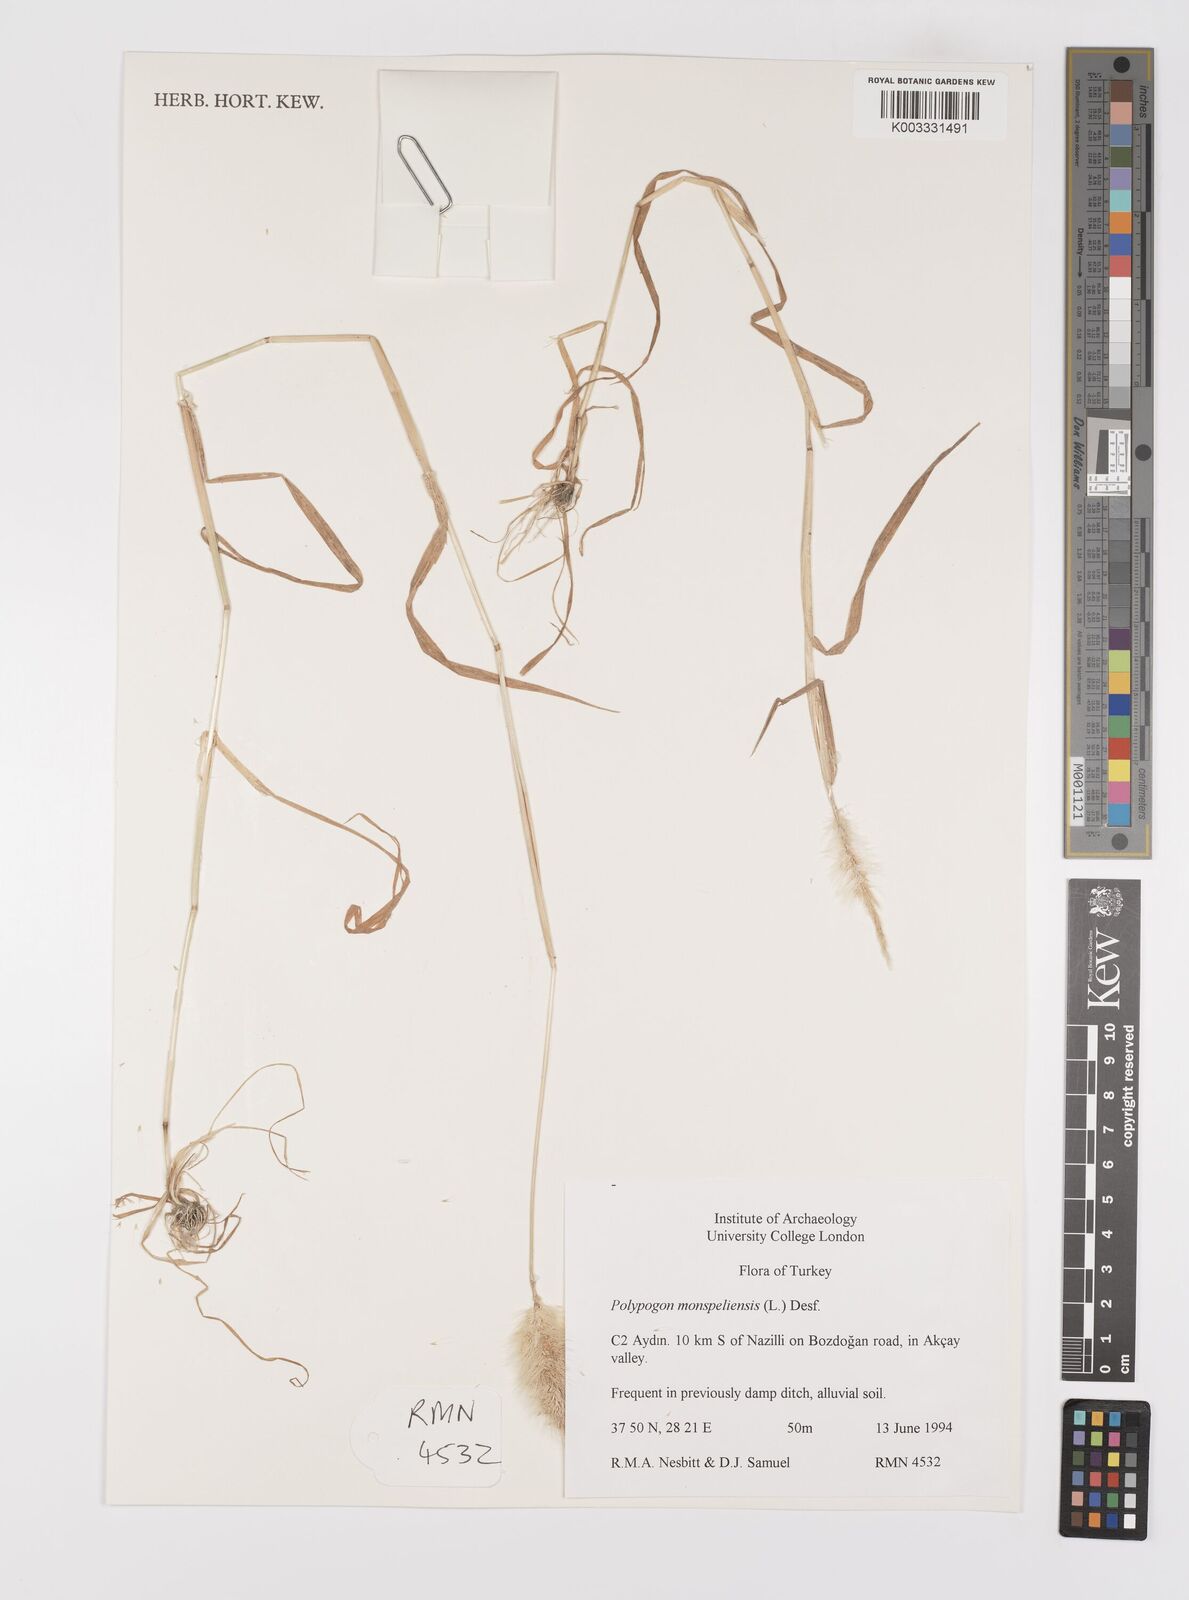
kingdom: Plantae
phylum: Tracheophyta
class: Liliopsida
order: Poales
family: Poaceae
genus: Polypogon
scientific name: Polypogon monspeliensis
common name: Annual rabbitsfoot grass
